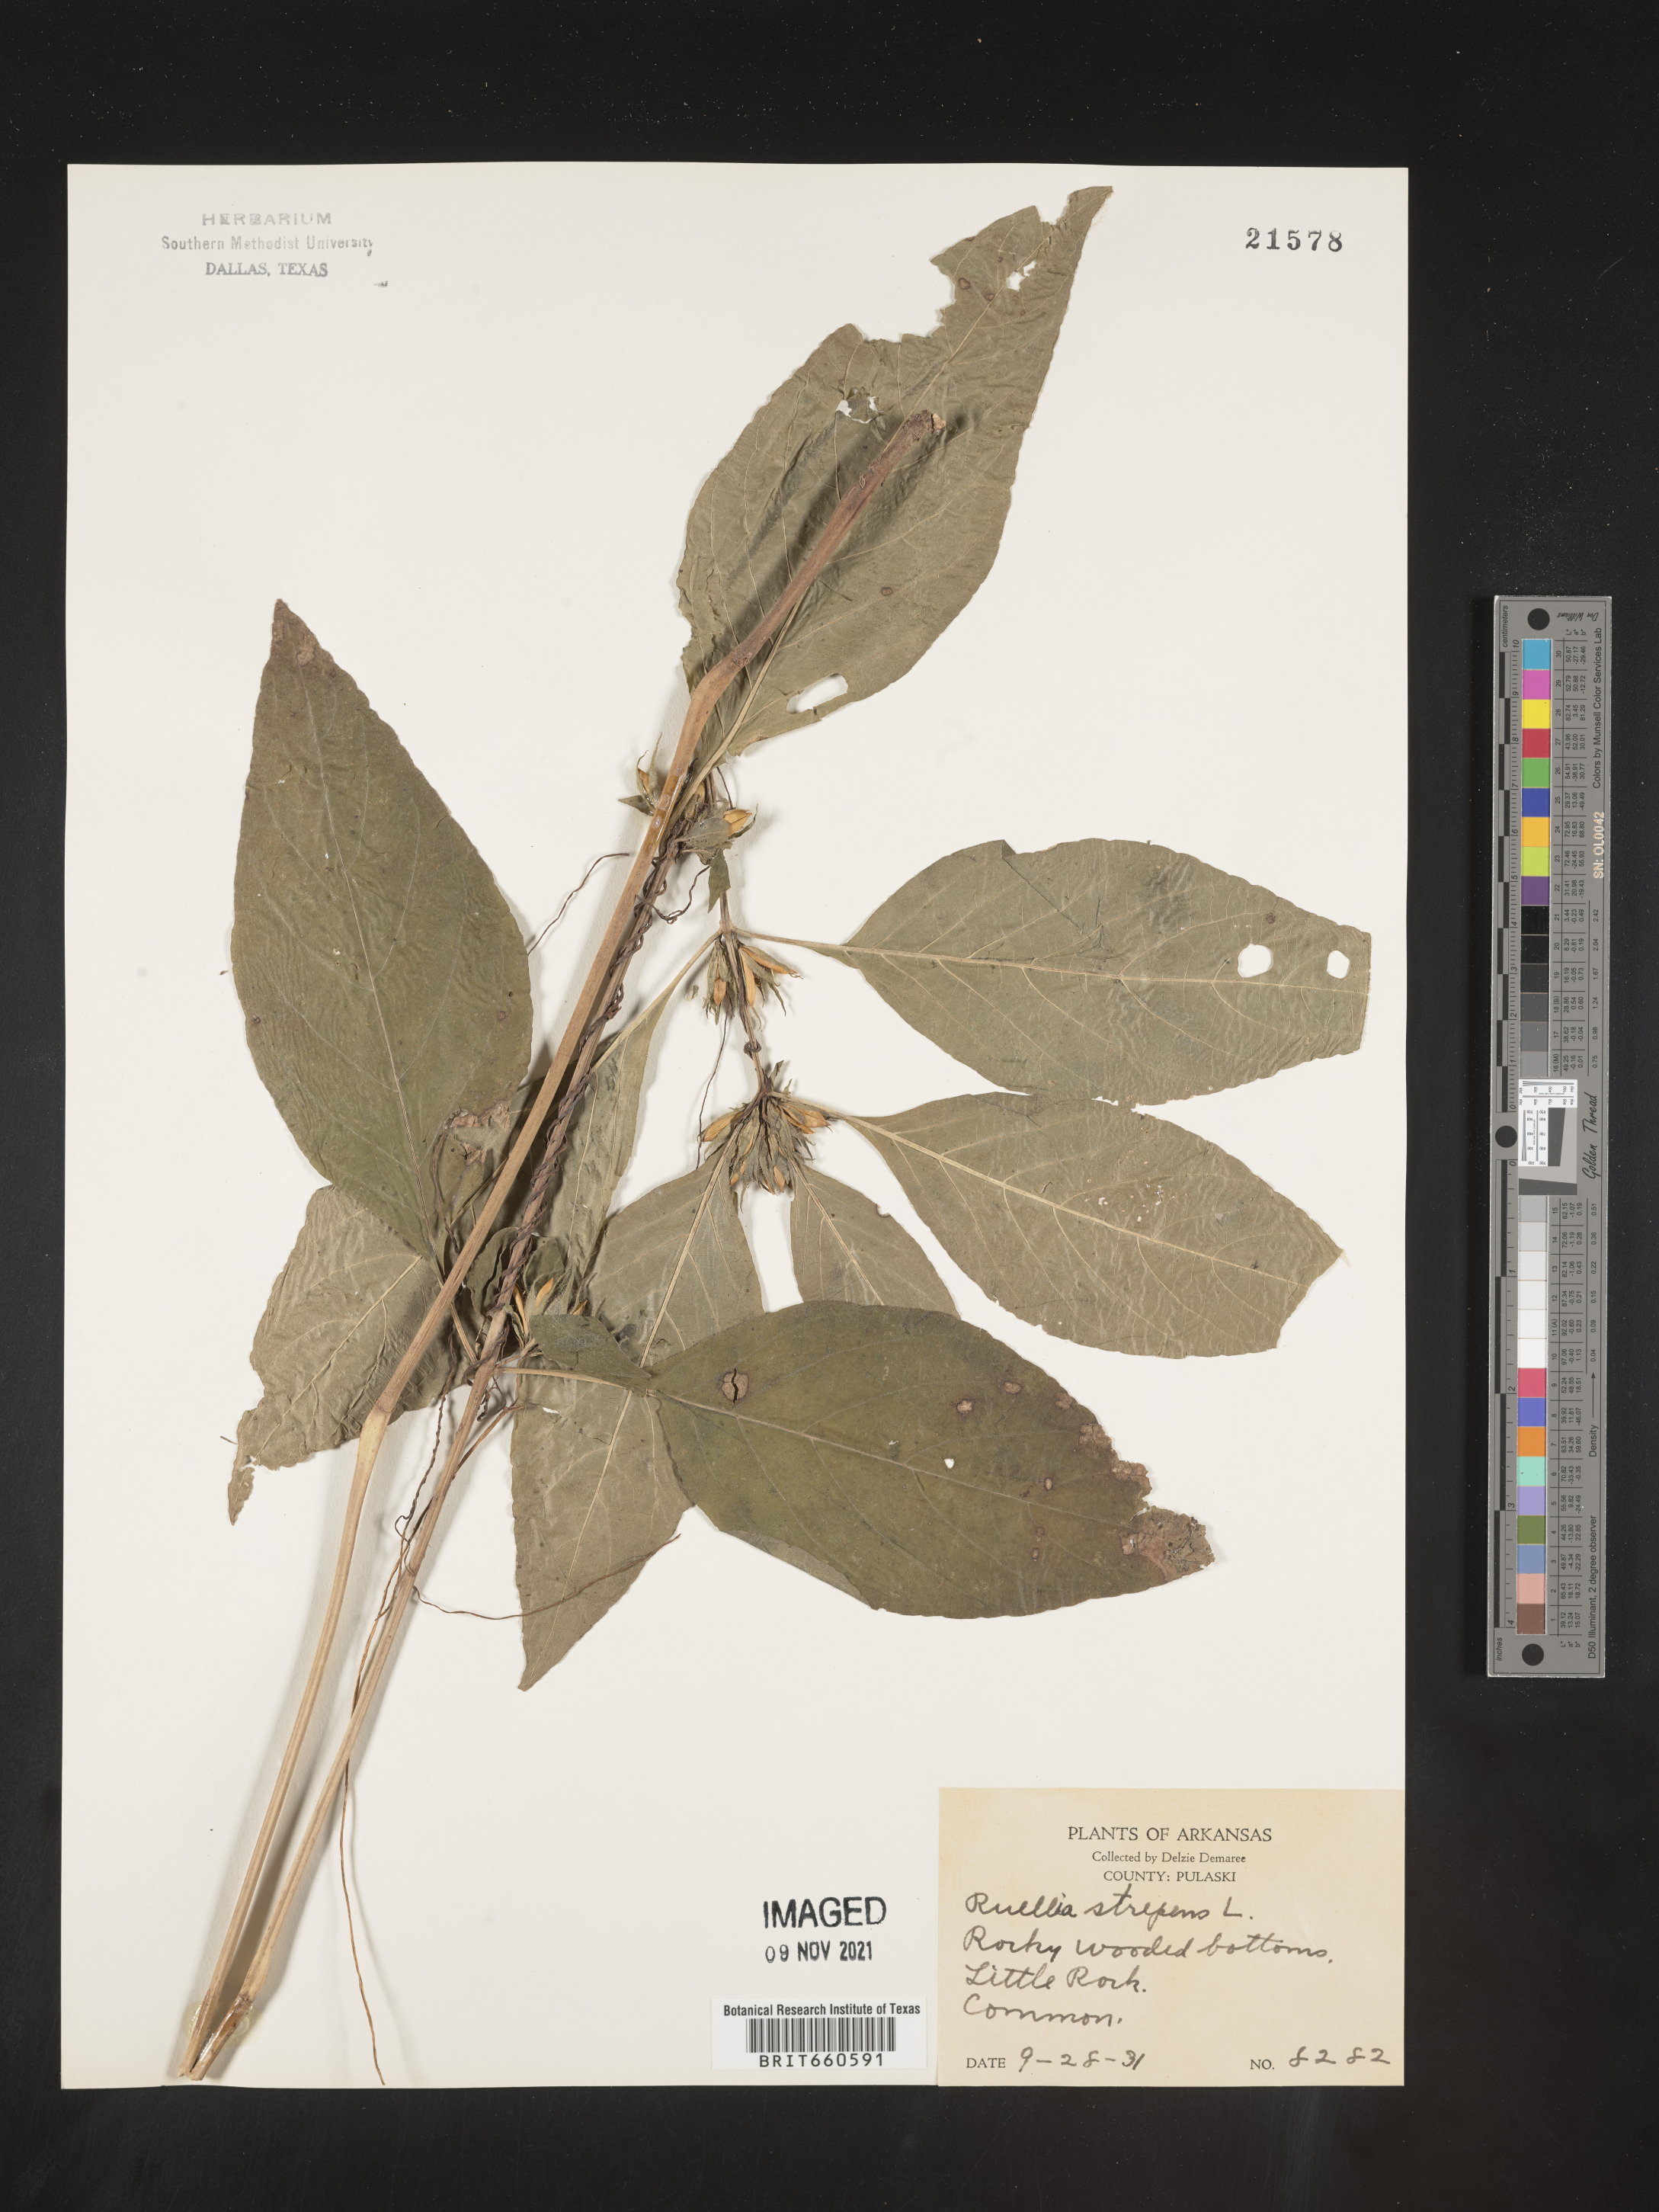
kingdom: Plantae
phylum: Tracheophyta
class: Magnoliopsida
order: Lamiales
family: Acanthaceae
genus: Ruellia
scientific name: Ruellia strepens
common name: Limestone wild petunia
